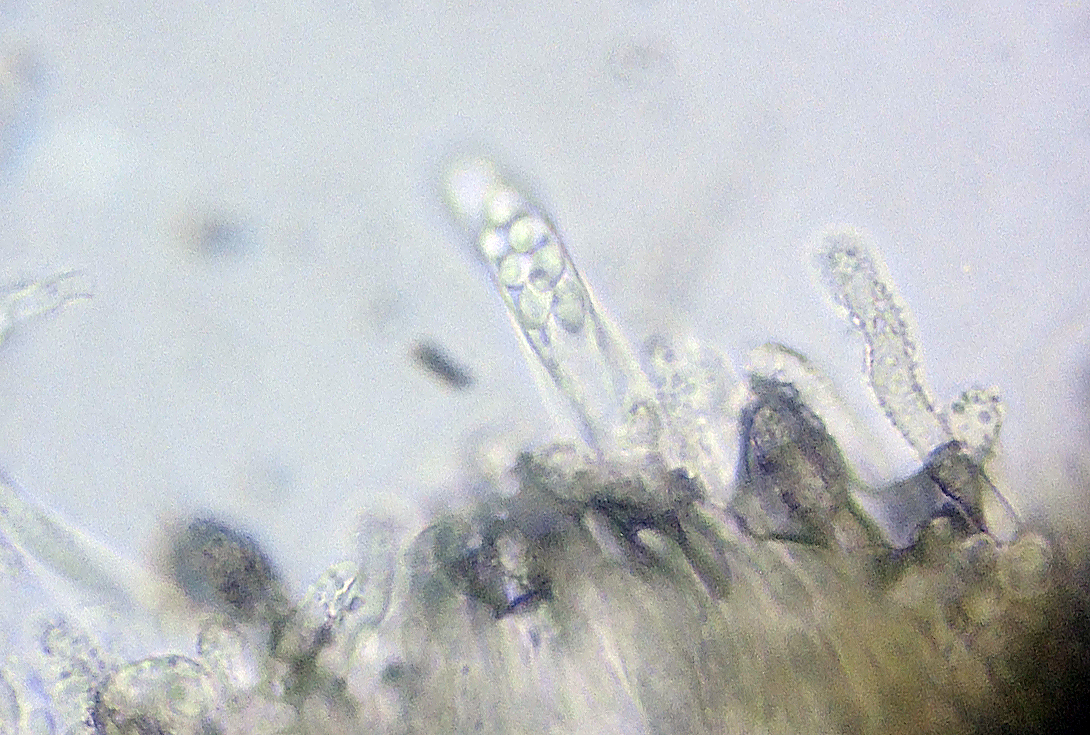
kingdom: Fungi
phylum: Ascomycota
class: Leotiomycetes
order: Helotiales
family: Hyphodiscaceae
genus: Hyphodiscus
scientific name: Hyphodiscus smaragdinus
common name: grønlig sirskive
